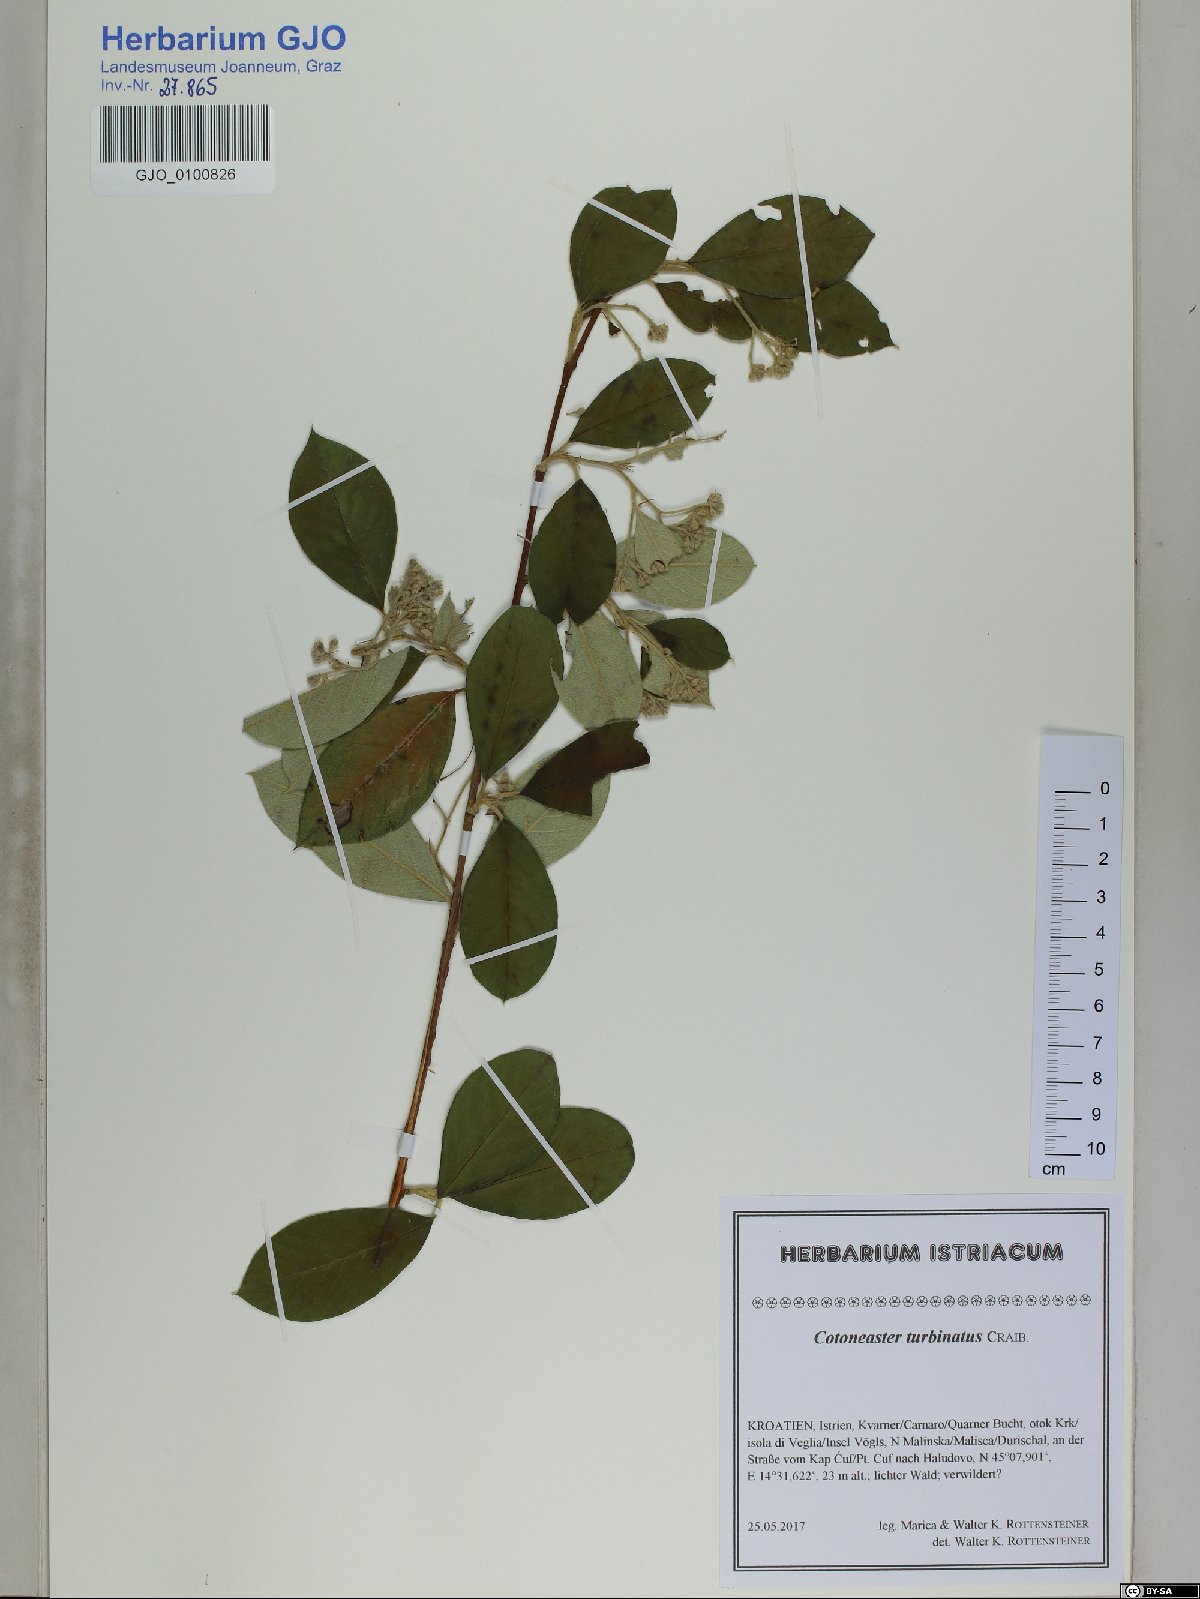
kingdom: Plantae
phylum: Tracheophyta
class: Magnoliopsida
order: Rosales
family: Rosaceae
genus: Cotoneaster
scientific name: Cotoneaster turbinatus
